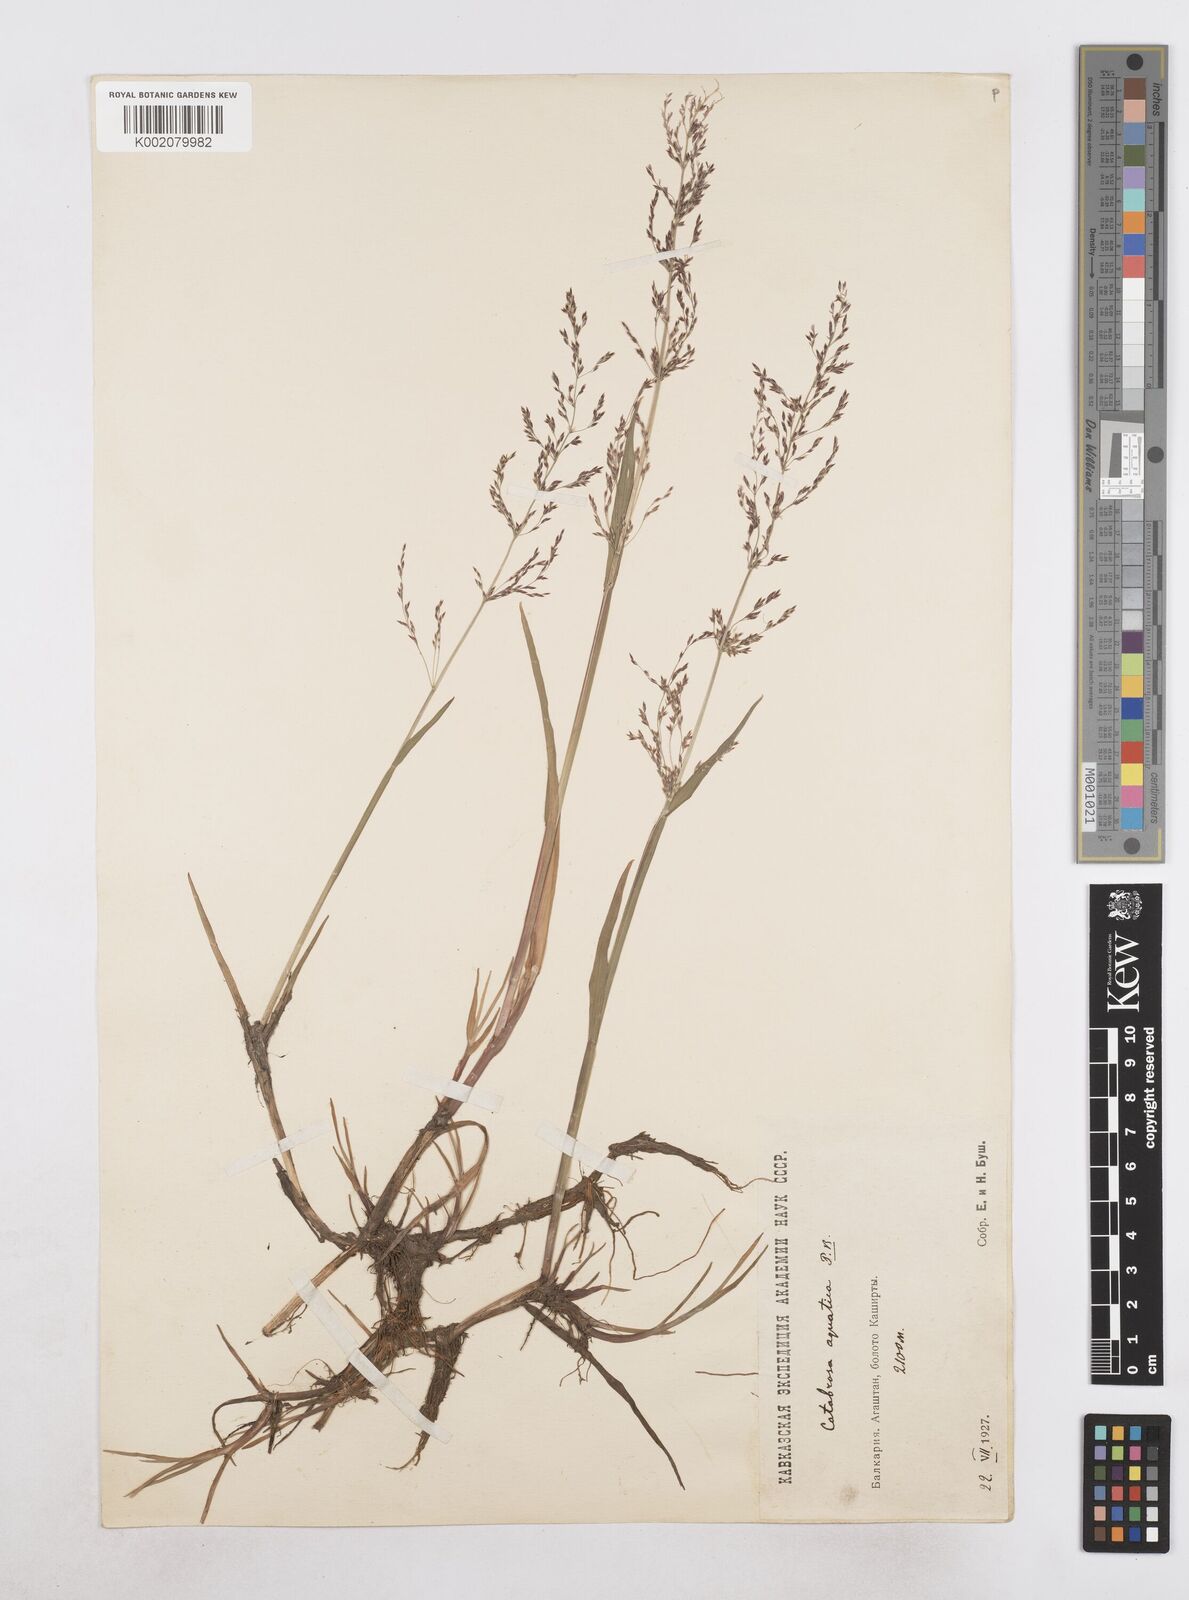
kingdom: Plantae
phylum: Tracheophyta
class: Liliopsida
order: Poales
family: Poaceae
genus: Catabrosa
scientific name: Catabrosa aquatica
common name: Whorl-grass
